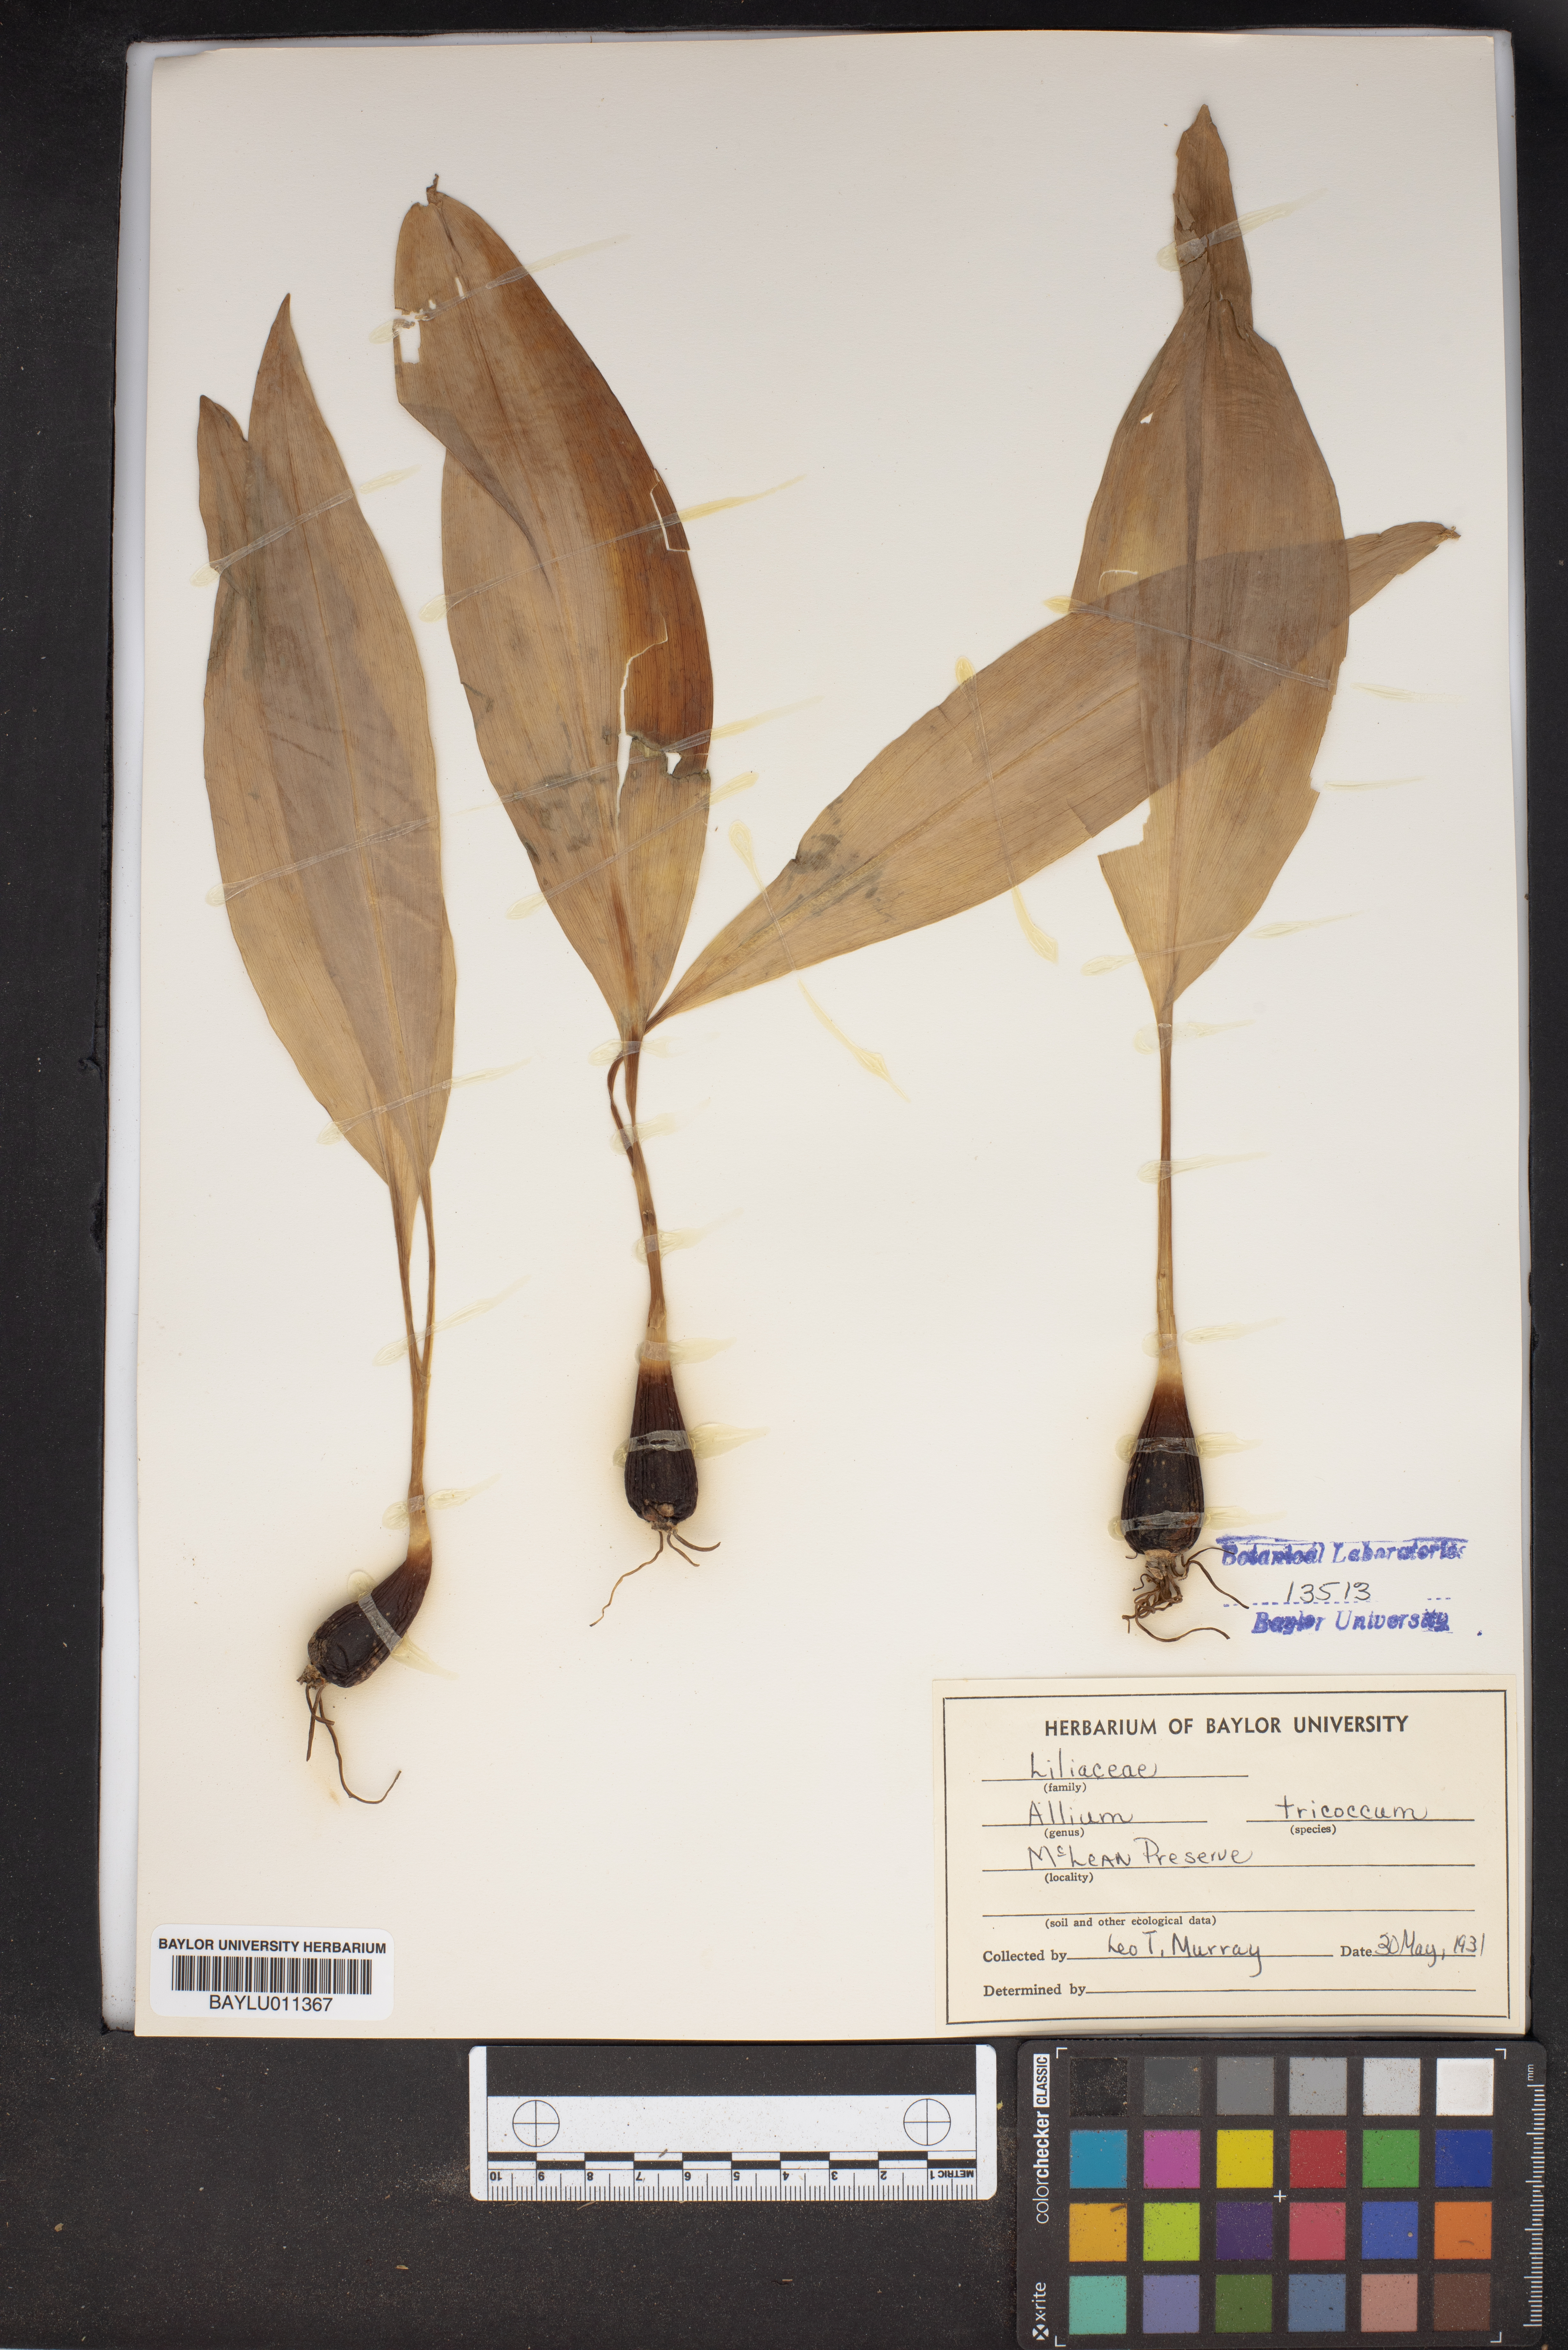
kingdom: Plantae
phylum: Tracheophyta
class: Liliopsida
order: Asparagales
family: Amaryllidaceae
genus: Allium
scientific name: Allium tricoccum
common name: Ramp
